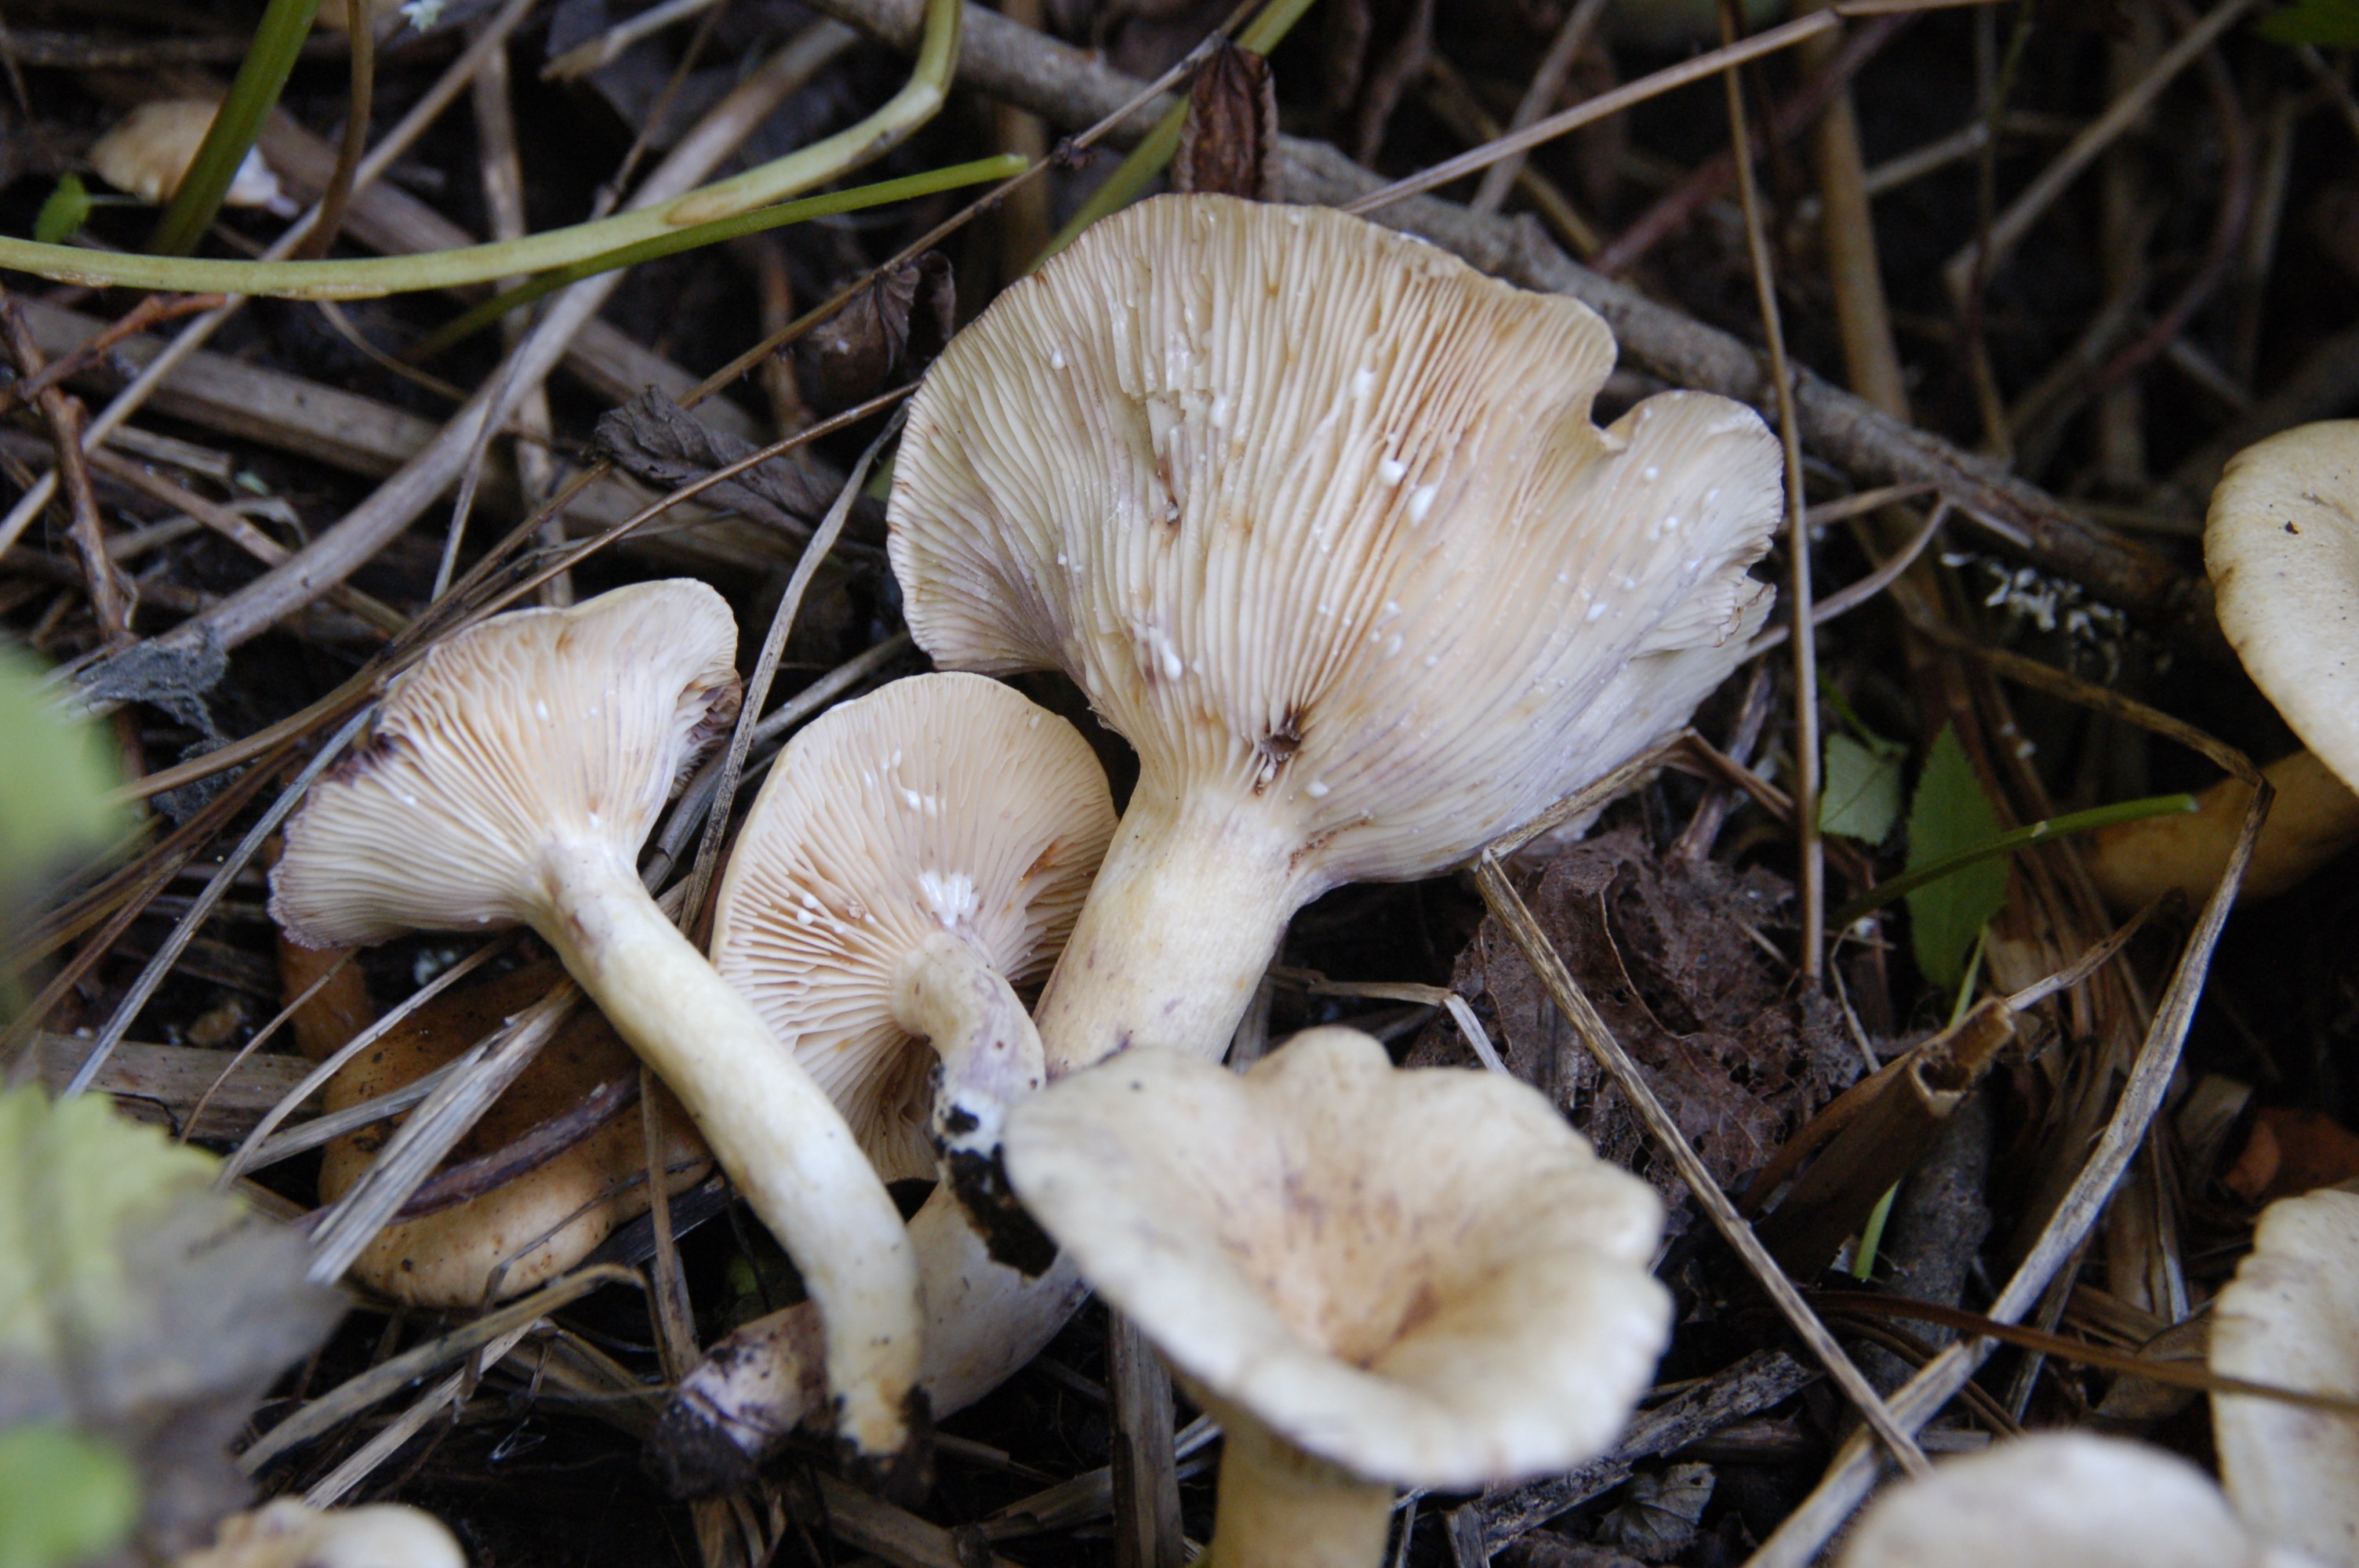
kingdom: Fungi
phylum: Basidiomycota
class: Agaricomycetes
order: Russulales
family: Russulaceae
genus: Lactarius
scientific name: Lactarius aspideus
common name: Willow milkcap
